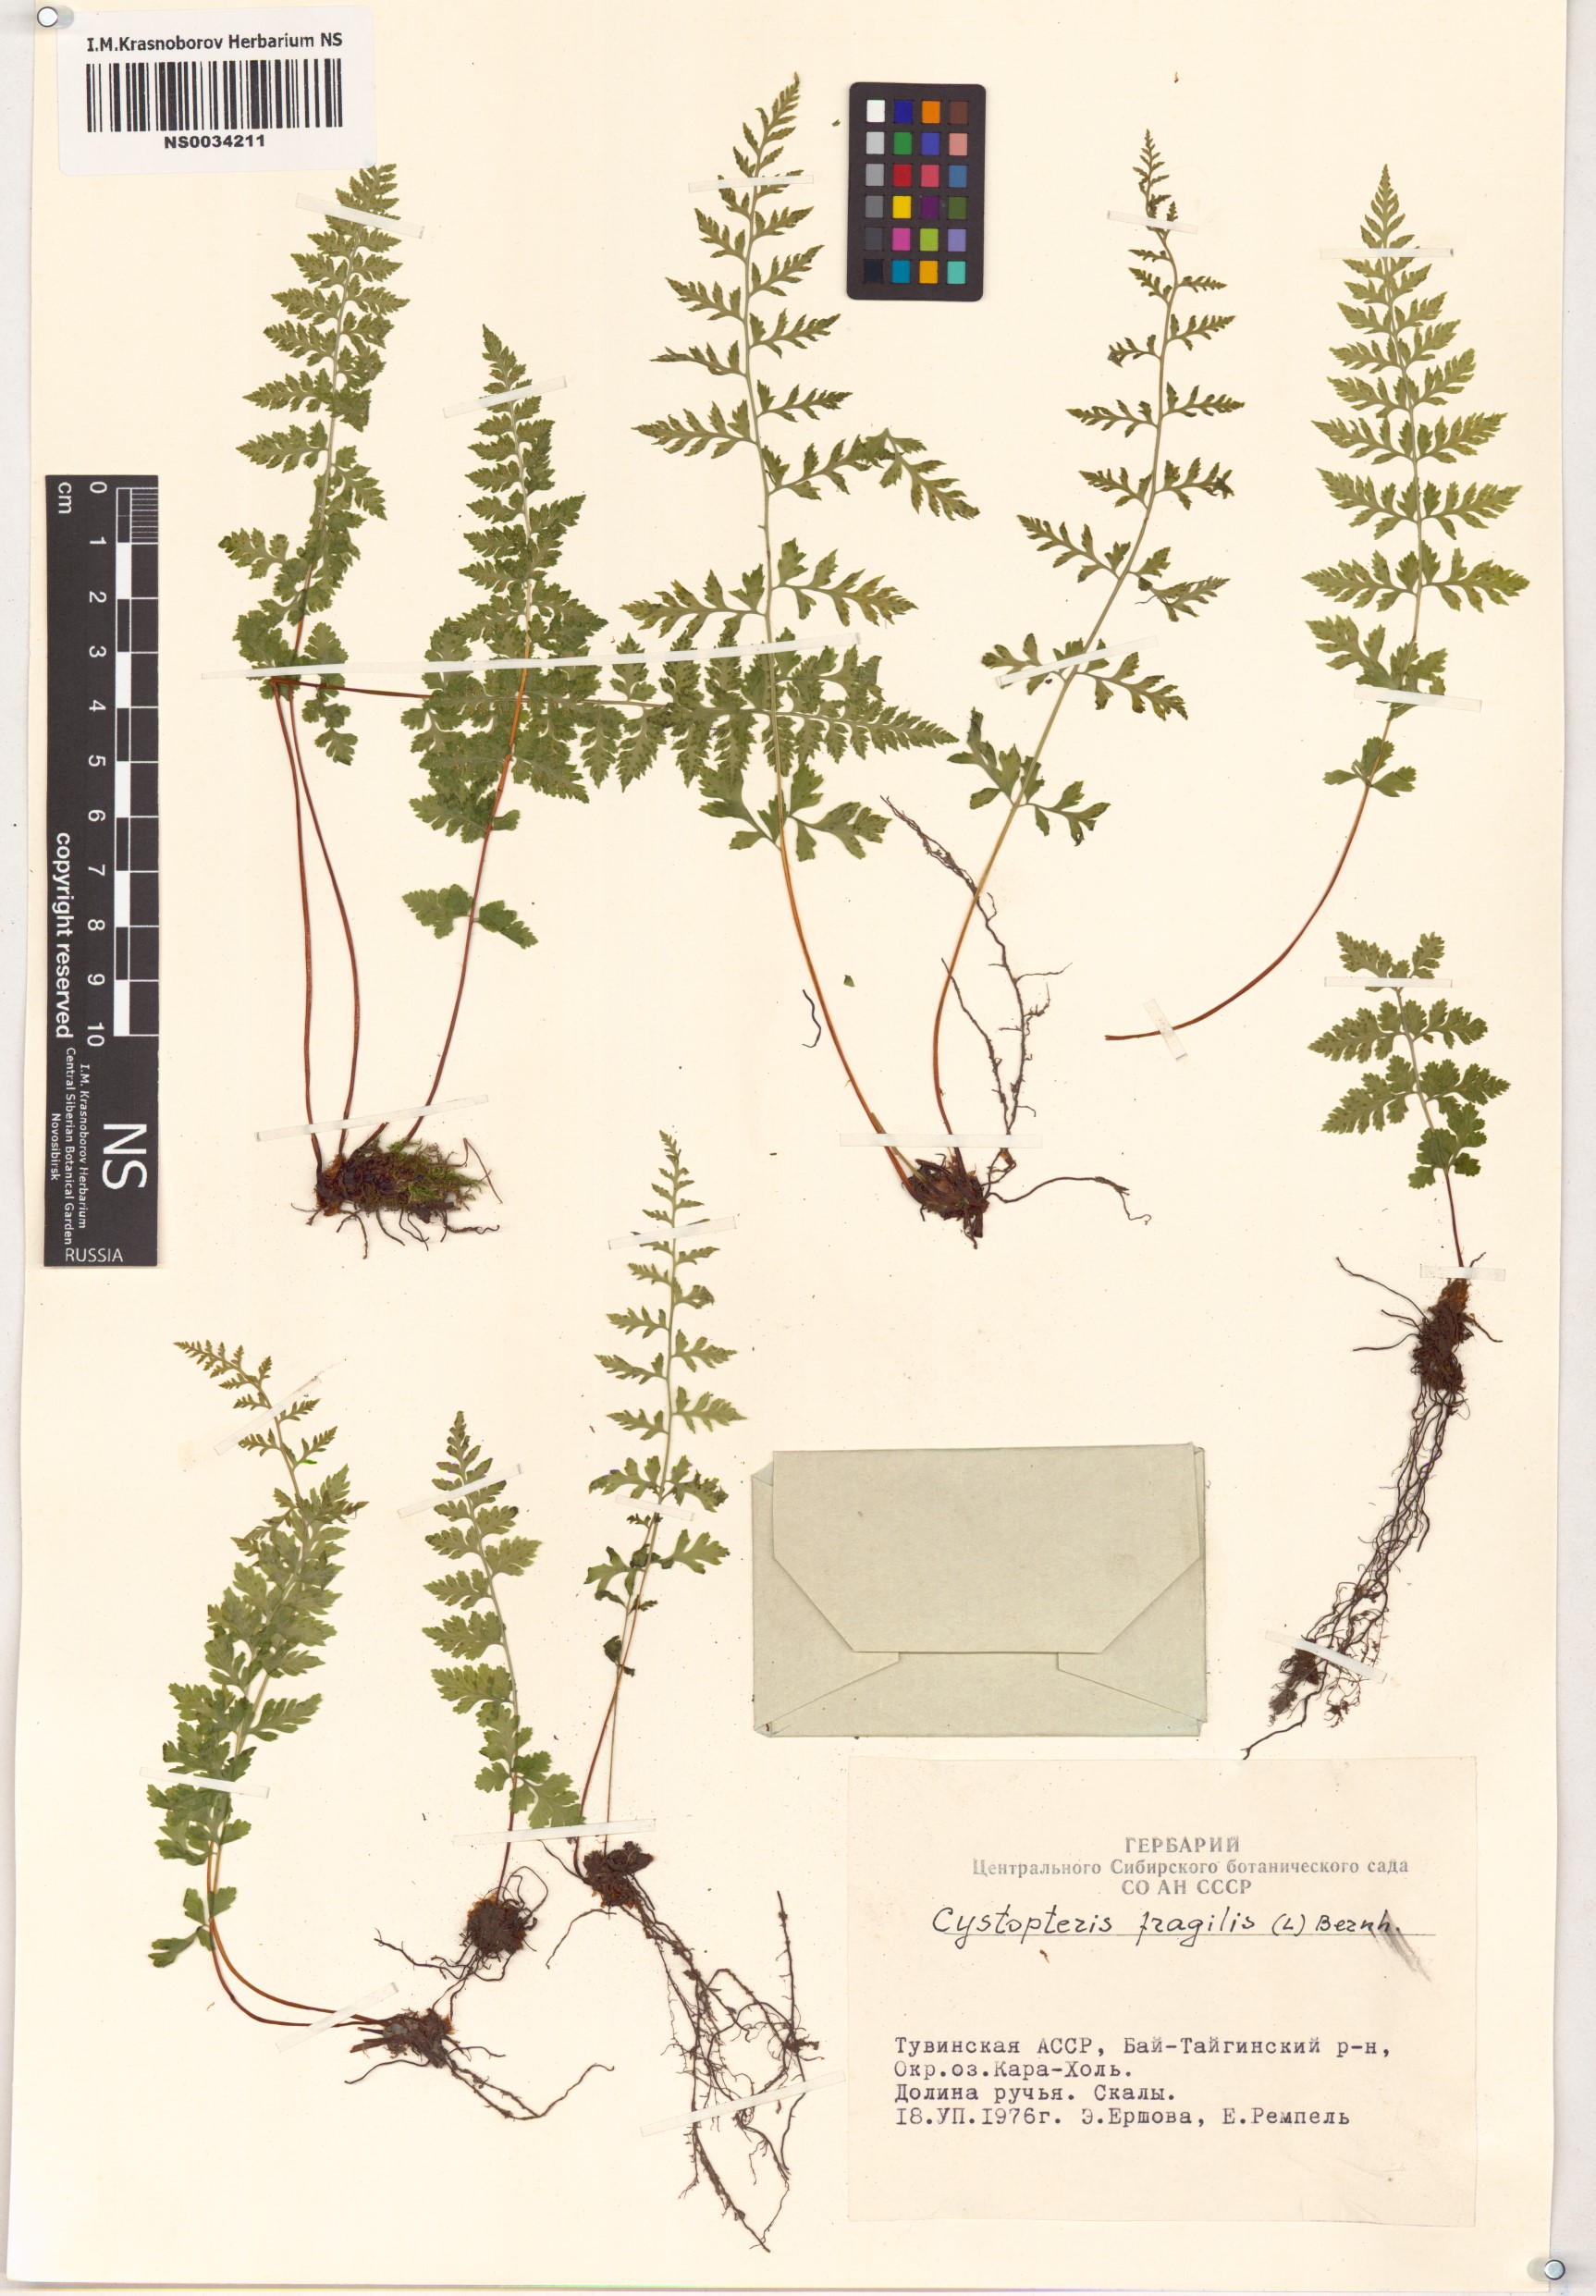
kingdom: Plantae
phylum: Tracheophyta
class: Polypodiopsida
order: Polypodiales
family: Cystopteridaceae
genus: Cystopteris
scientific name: Cystopteris fragilis
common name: Brittle bladder fern
